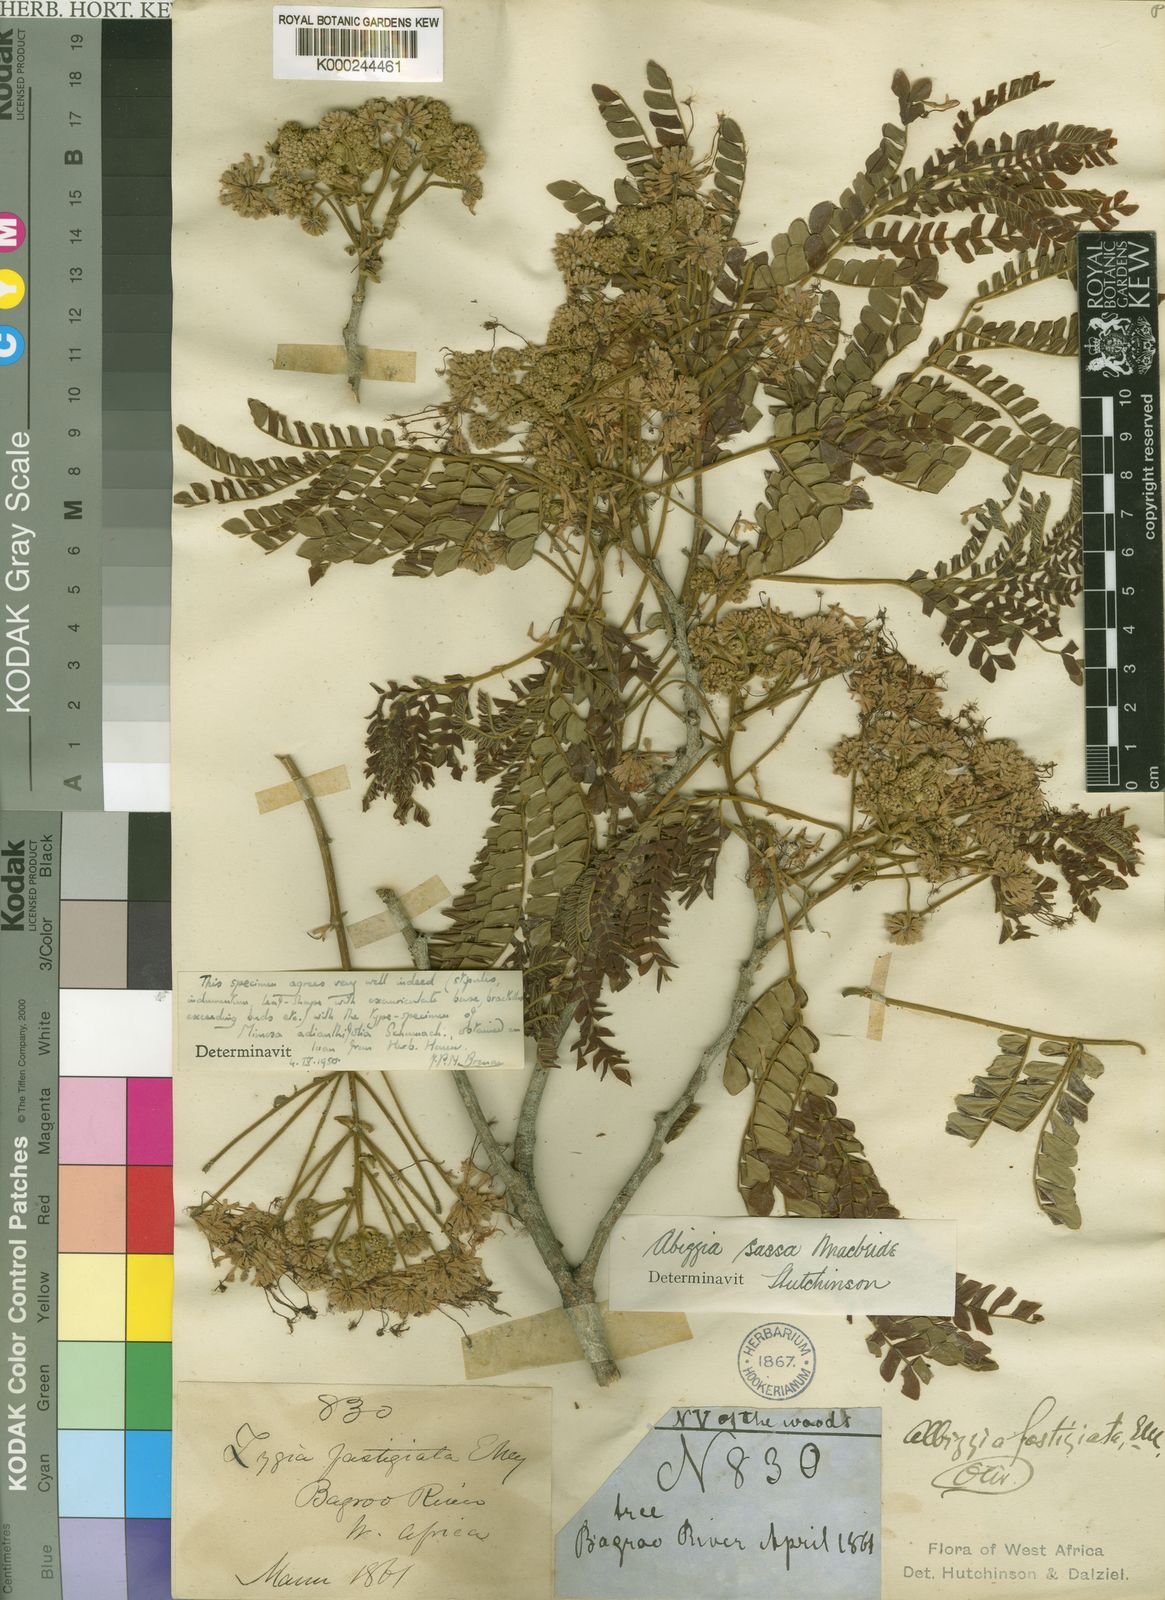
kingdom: Plantae
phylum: Tracheophyta
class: Magnoliopsida
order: Fabales
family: Fabaceae
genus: Albizia
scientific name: Albizia adianthifolia
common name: West african albizia
